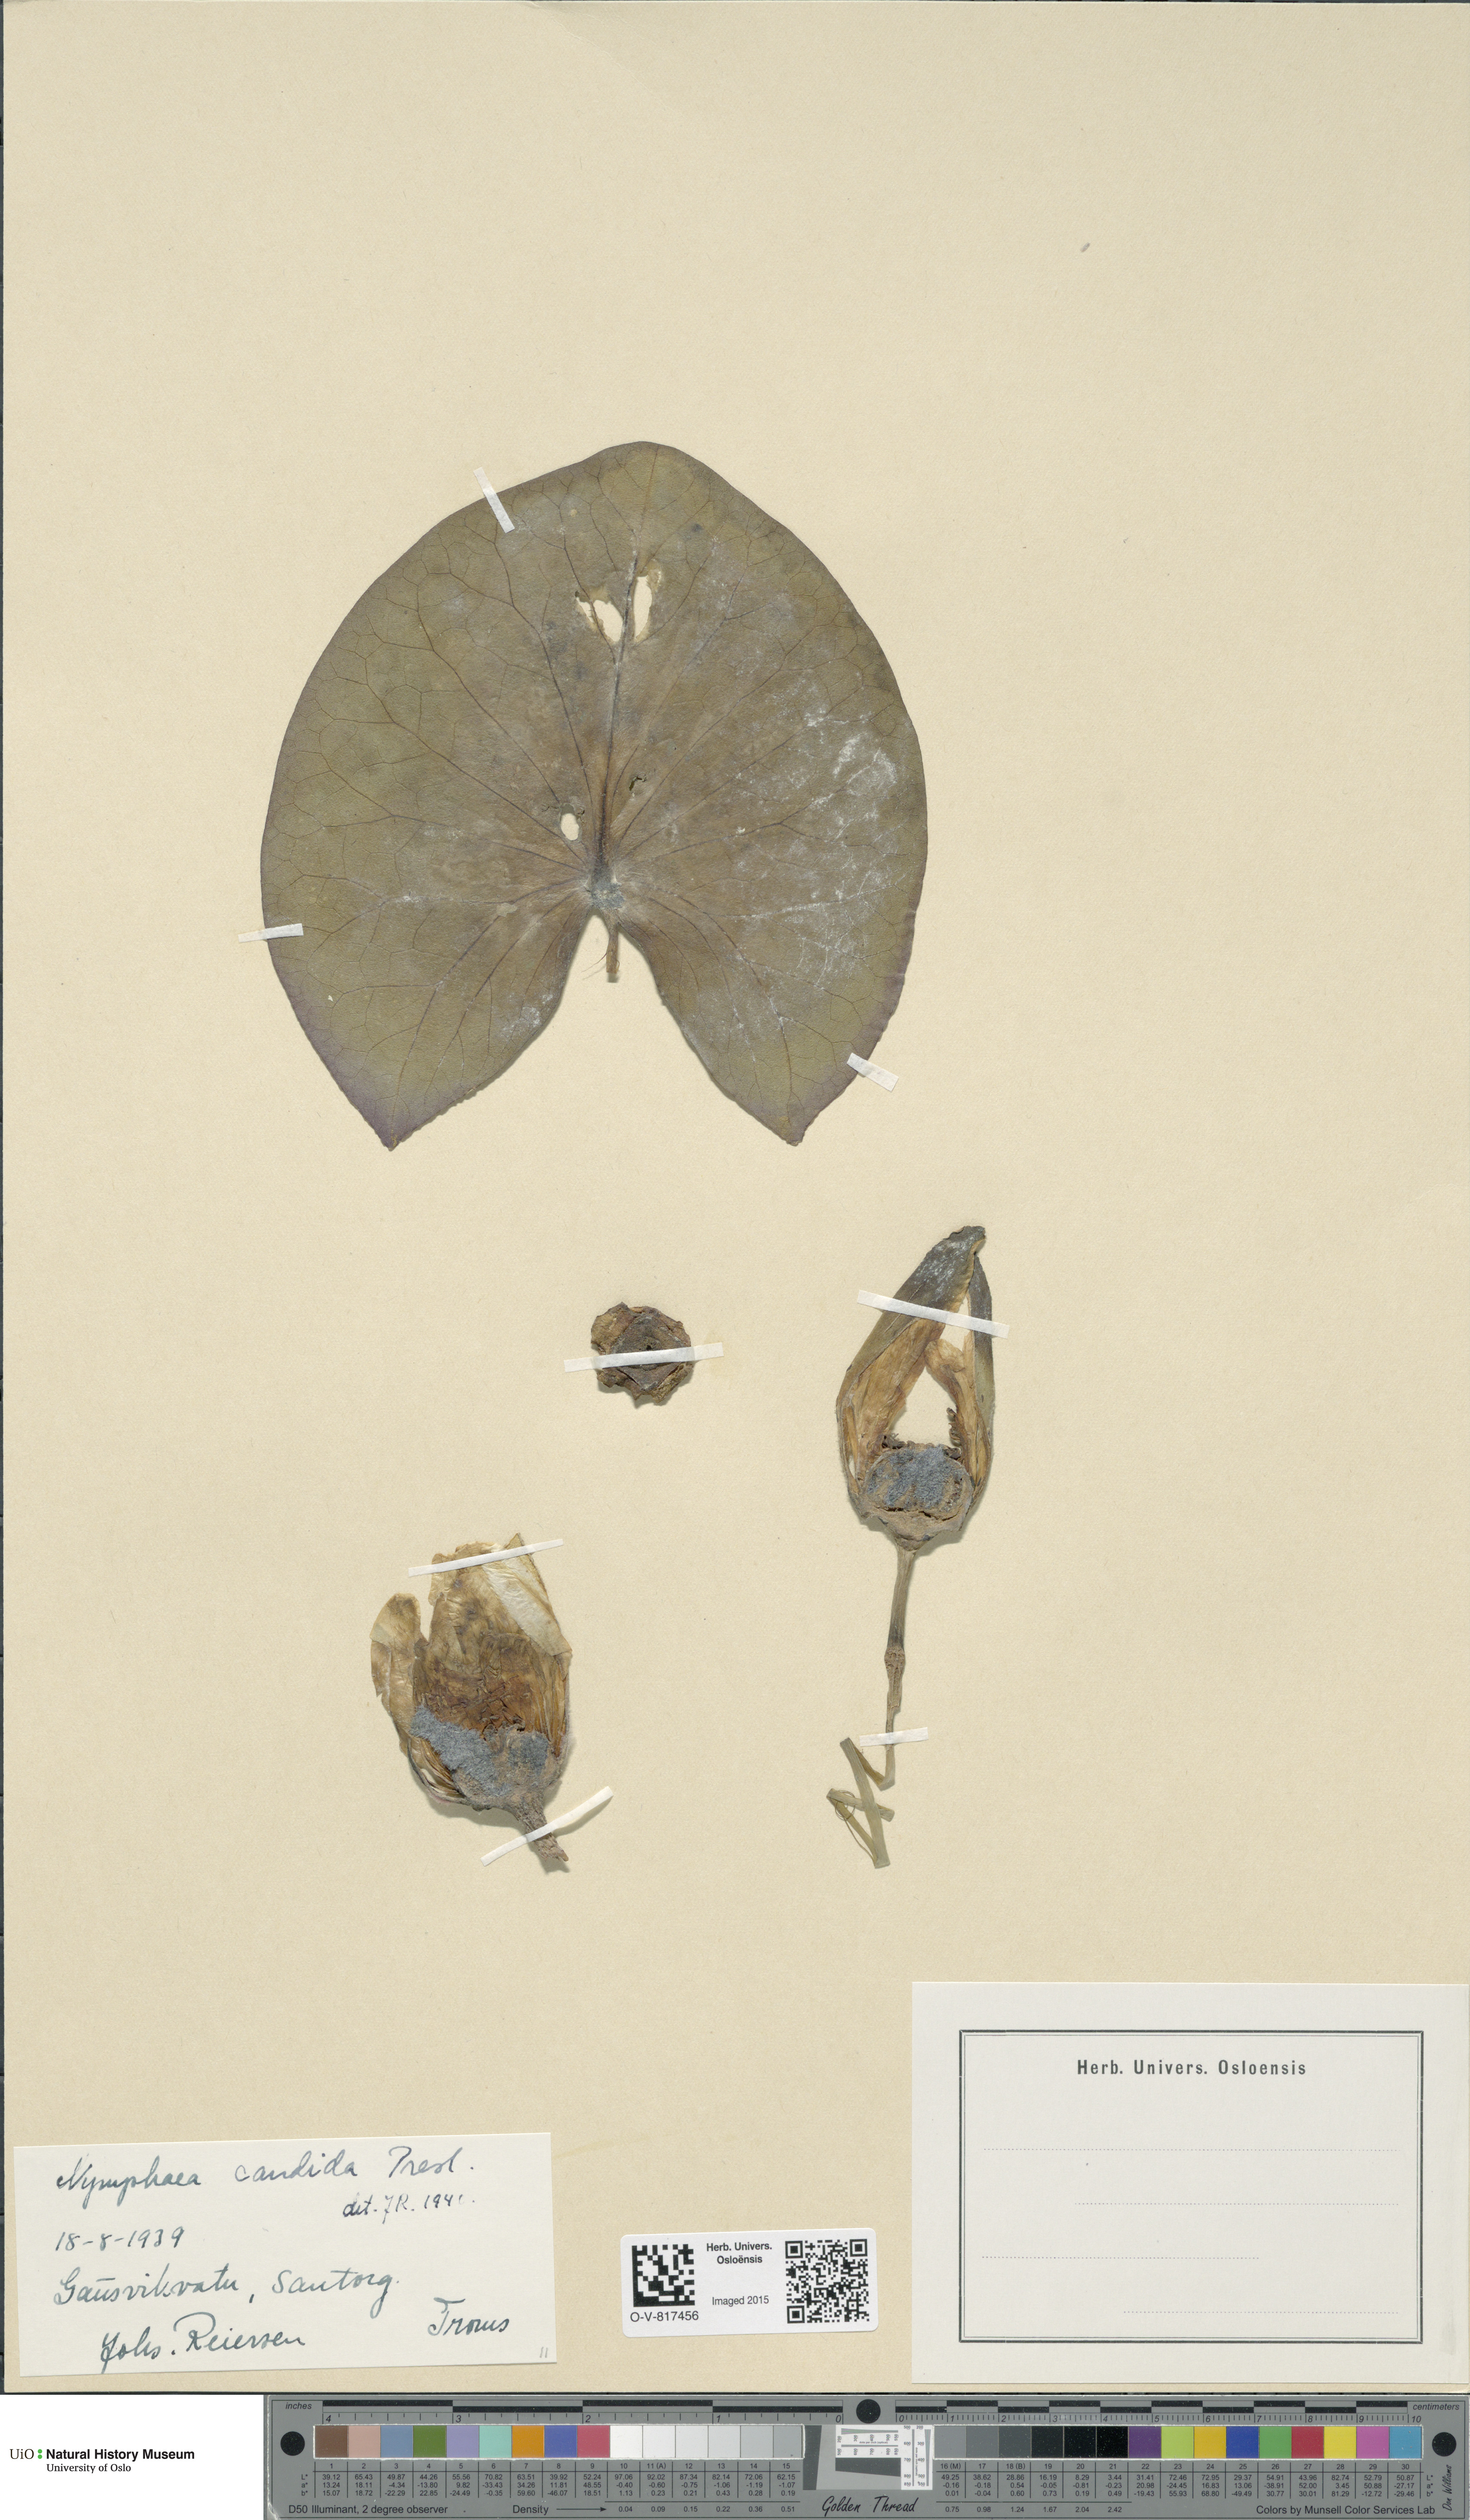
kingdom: Plantae
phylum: Tracheophyta
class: Magnoliopsida
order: Nymphaeales
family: Nymphaeaceae
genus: Nymphaea
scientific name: Nymphaea candida
